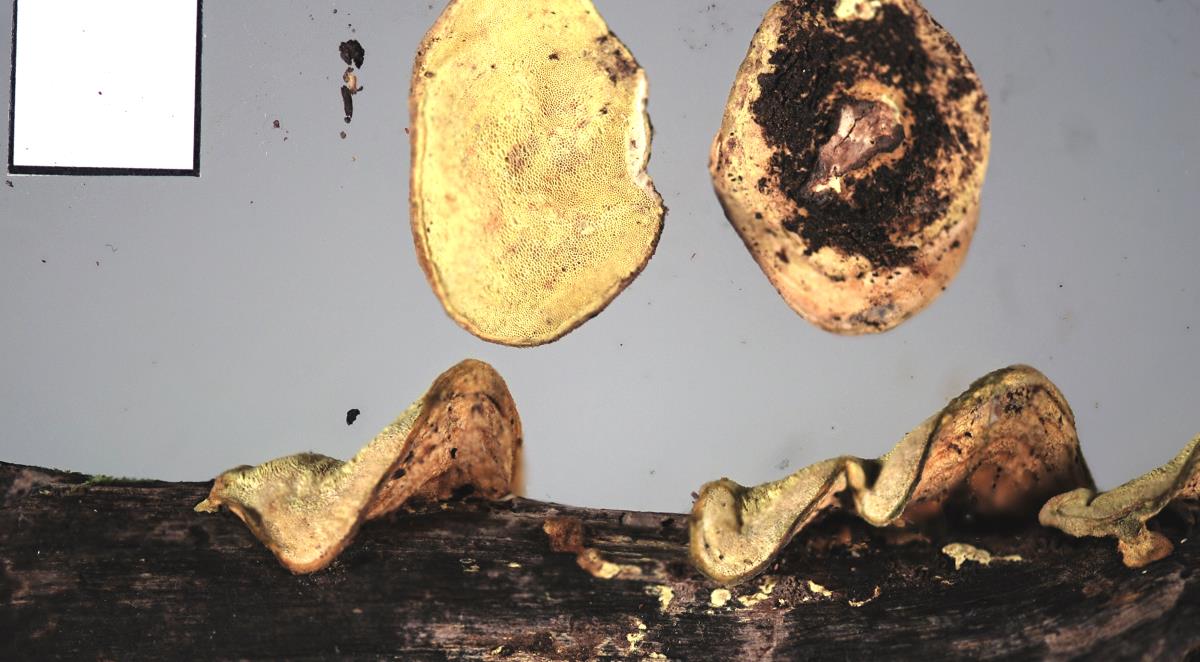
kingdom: Fungi
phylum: Basidiomycota
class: Agaricomycetes
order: Polyporales
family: Steccherinaceae
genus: Austeria
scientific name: Austeria citrea
